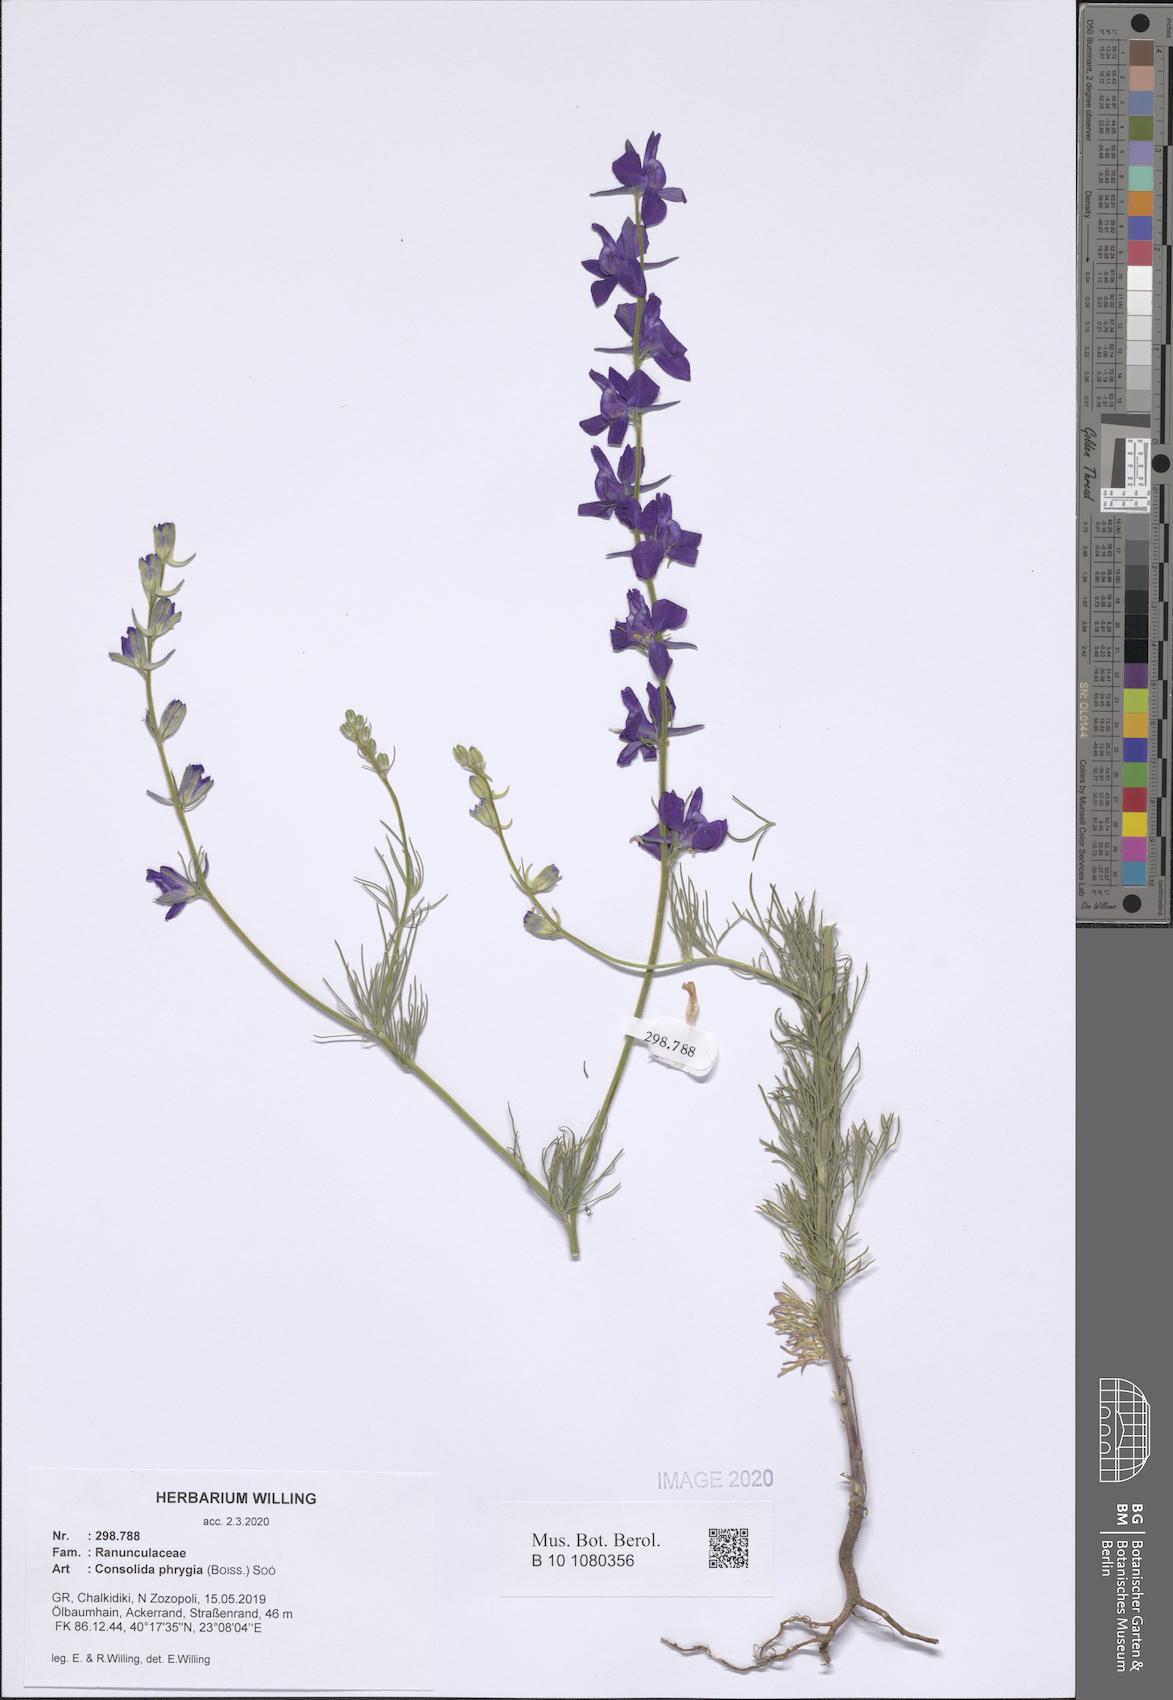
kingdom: Plantae
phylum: Tracheophyta
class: Magnoliopsida
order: Ranunculales
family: Ranunculaceae
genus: Delphinium
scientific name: Delphinium phrygium
